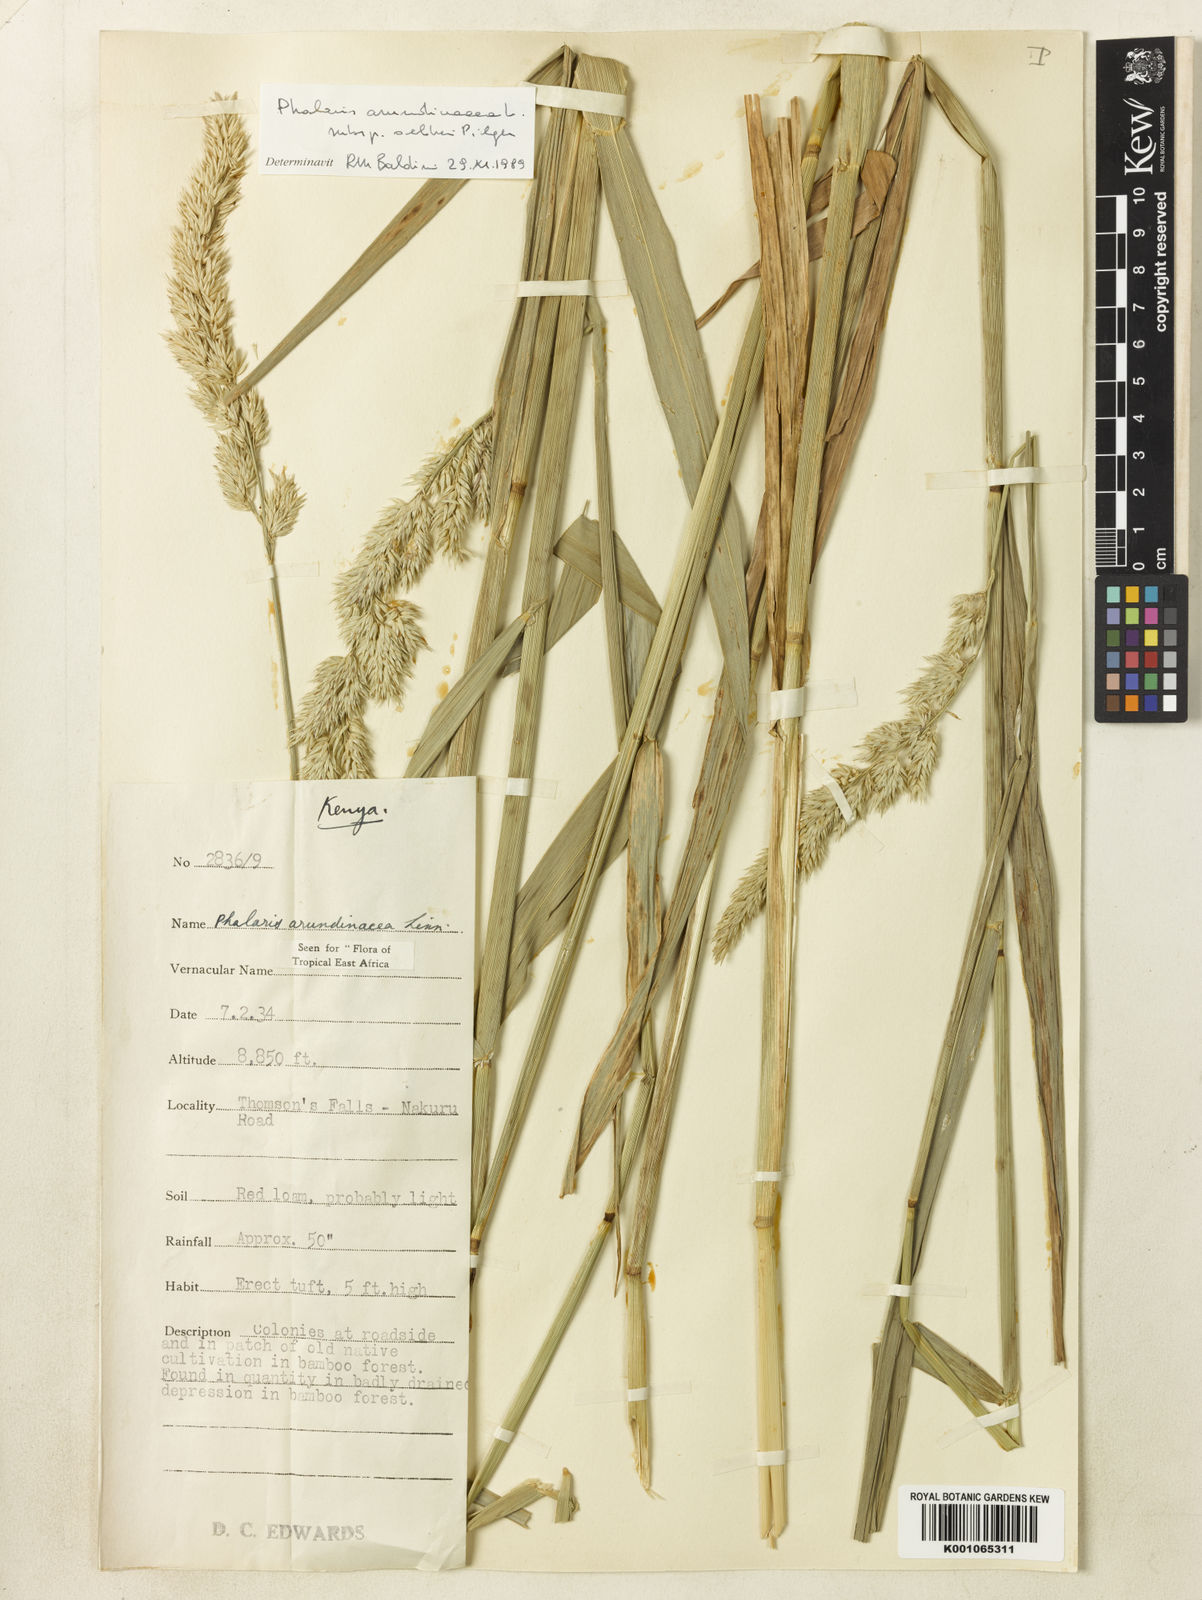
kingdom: Plantae
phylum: Tracheophyta
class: Liliopsida
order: Poales
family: Poaceae
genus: Phalaris
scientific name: Phalaris arundinacea
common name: Reed canary-grass
